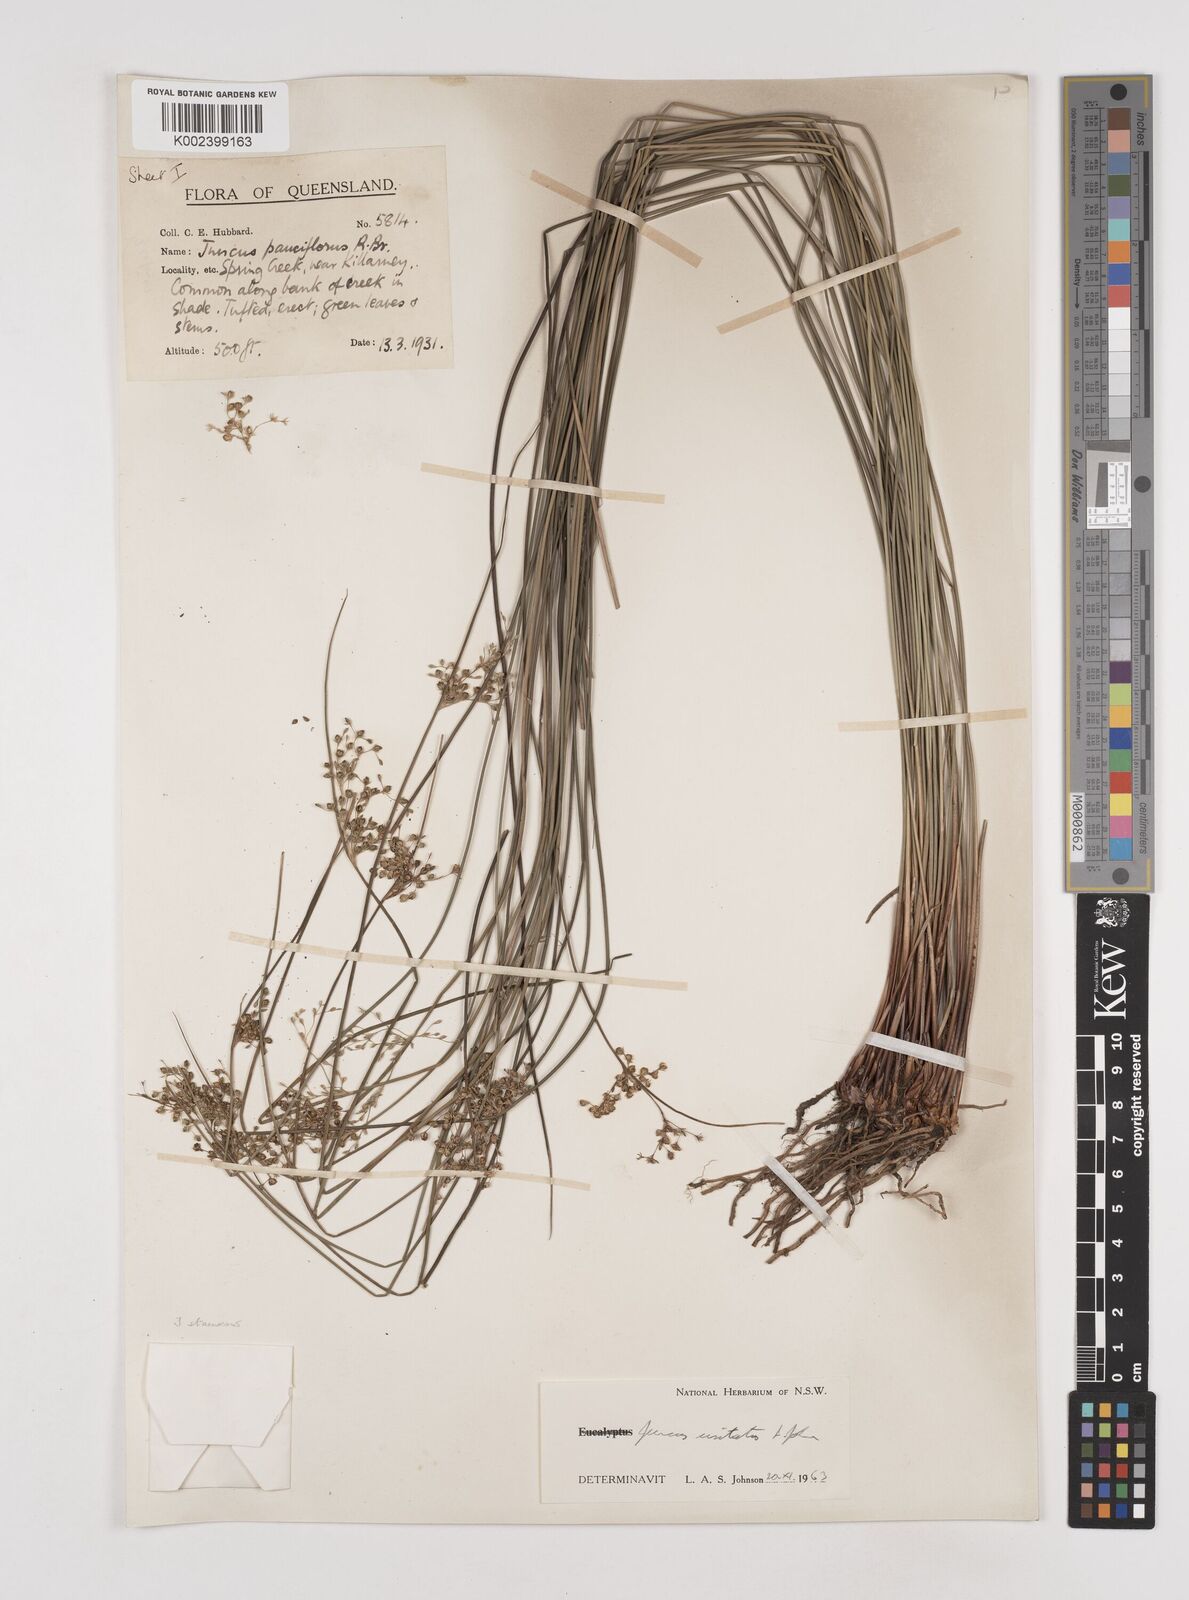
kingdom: Plantae
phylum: Tracheophyta
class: Liliopsida
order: Poales
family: Juncaceae
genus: Juncus
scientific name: Juncus usitatus
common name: Rush
